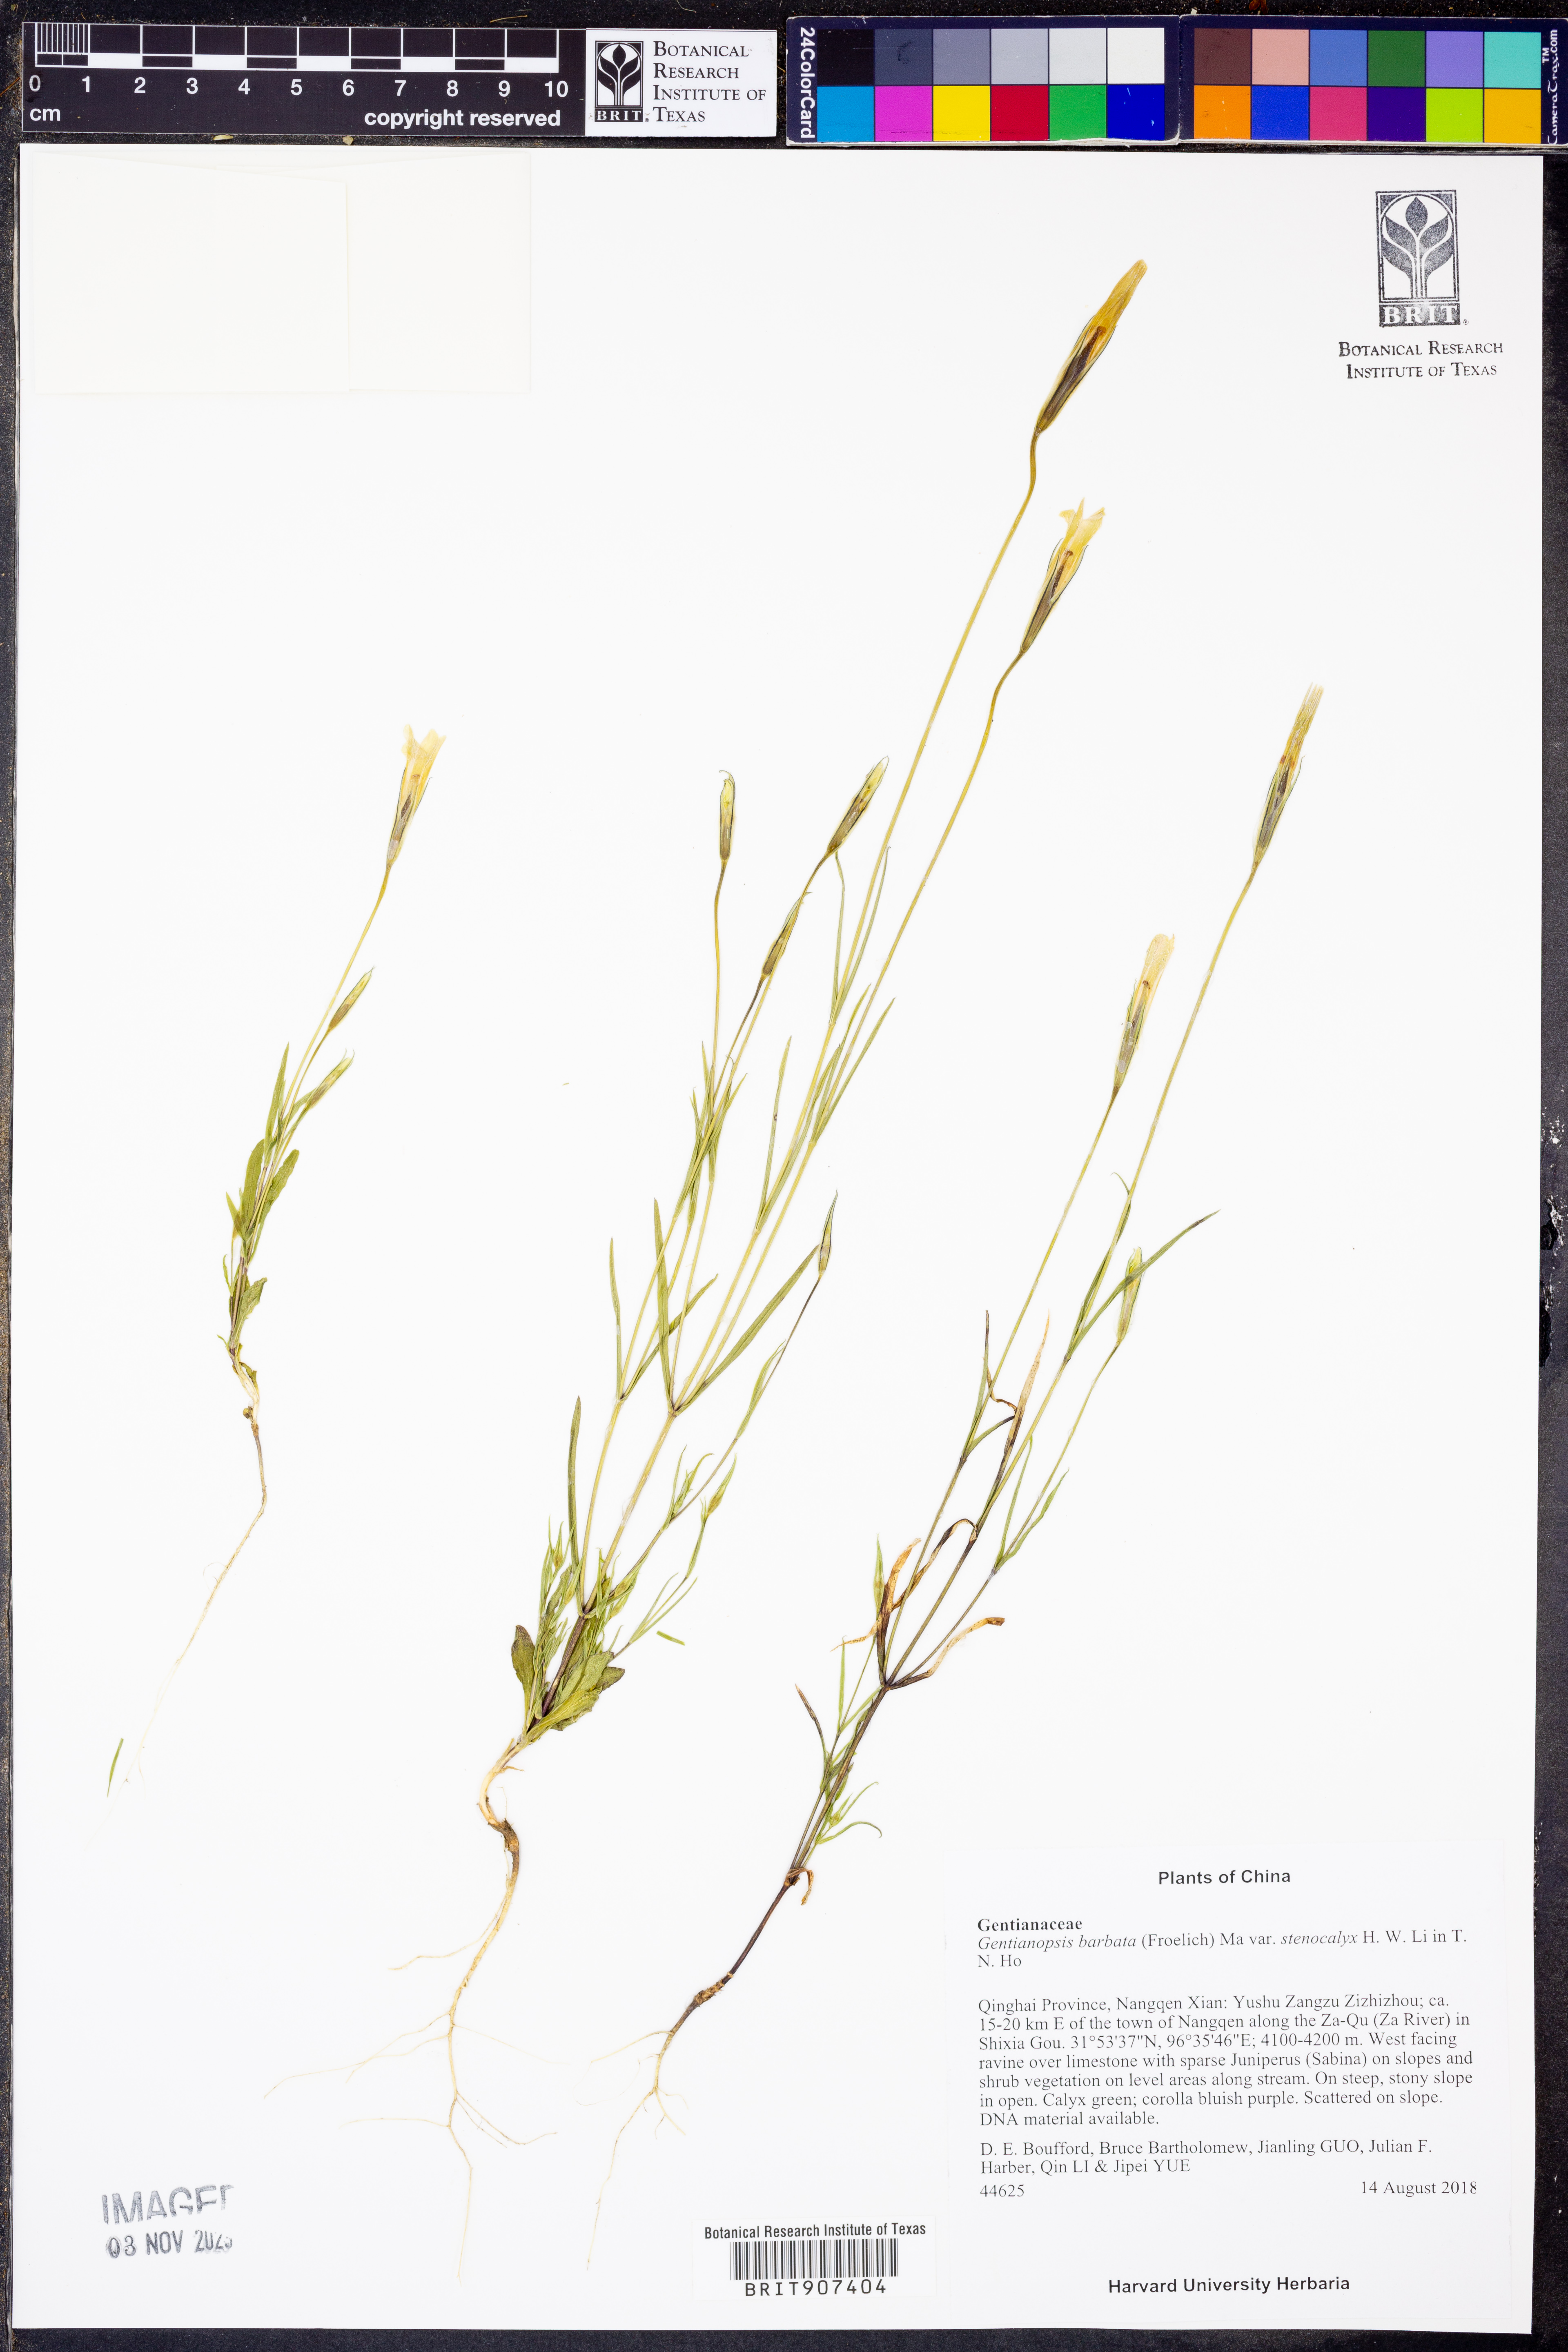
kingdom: Plantae
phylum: Tracheophyta
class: Magnoliopsida
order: Gentianales
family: Gentianaceae
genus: Gentianopsis
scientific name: Gentianopsis barbata
